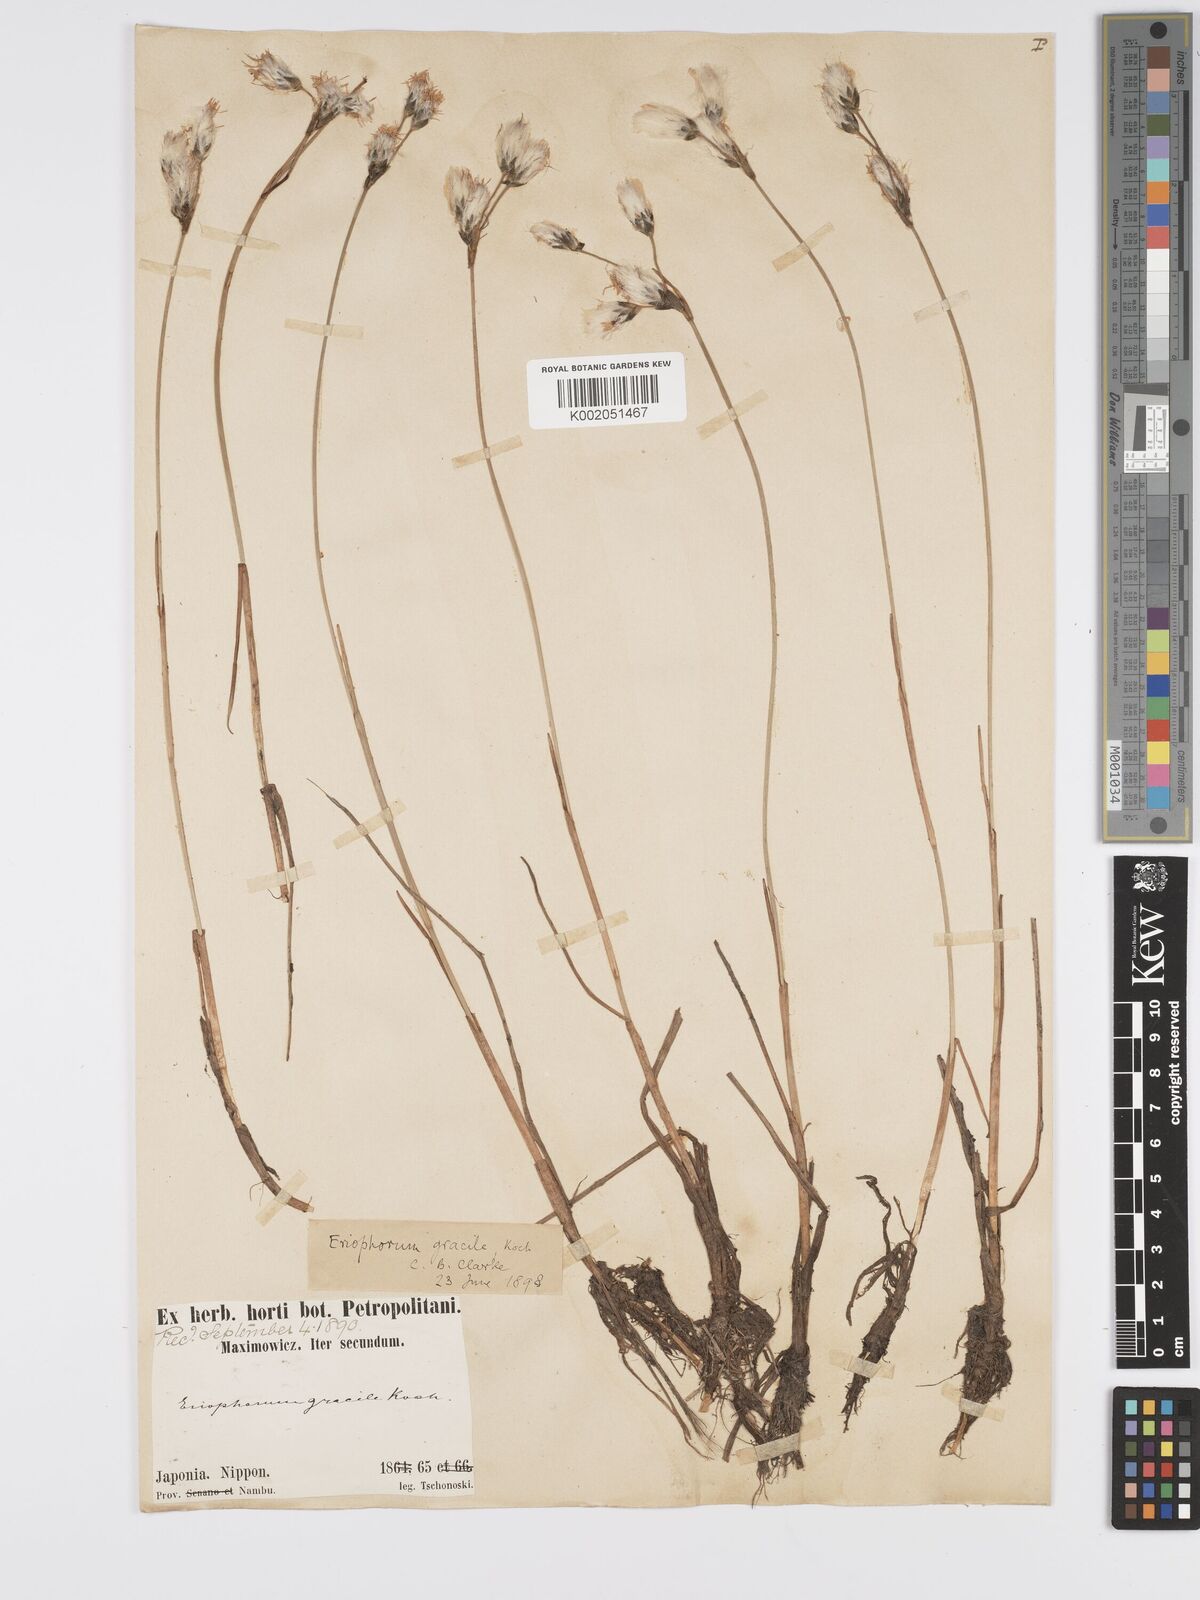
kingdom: Plantae
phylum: Tracheophyta
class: Liliopsida
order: Poales
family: Cyperaceae
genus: Eriophorum
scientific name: Eriophorum gracile
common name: Slender cottongrass
